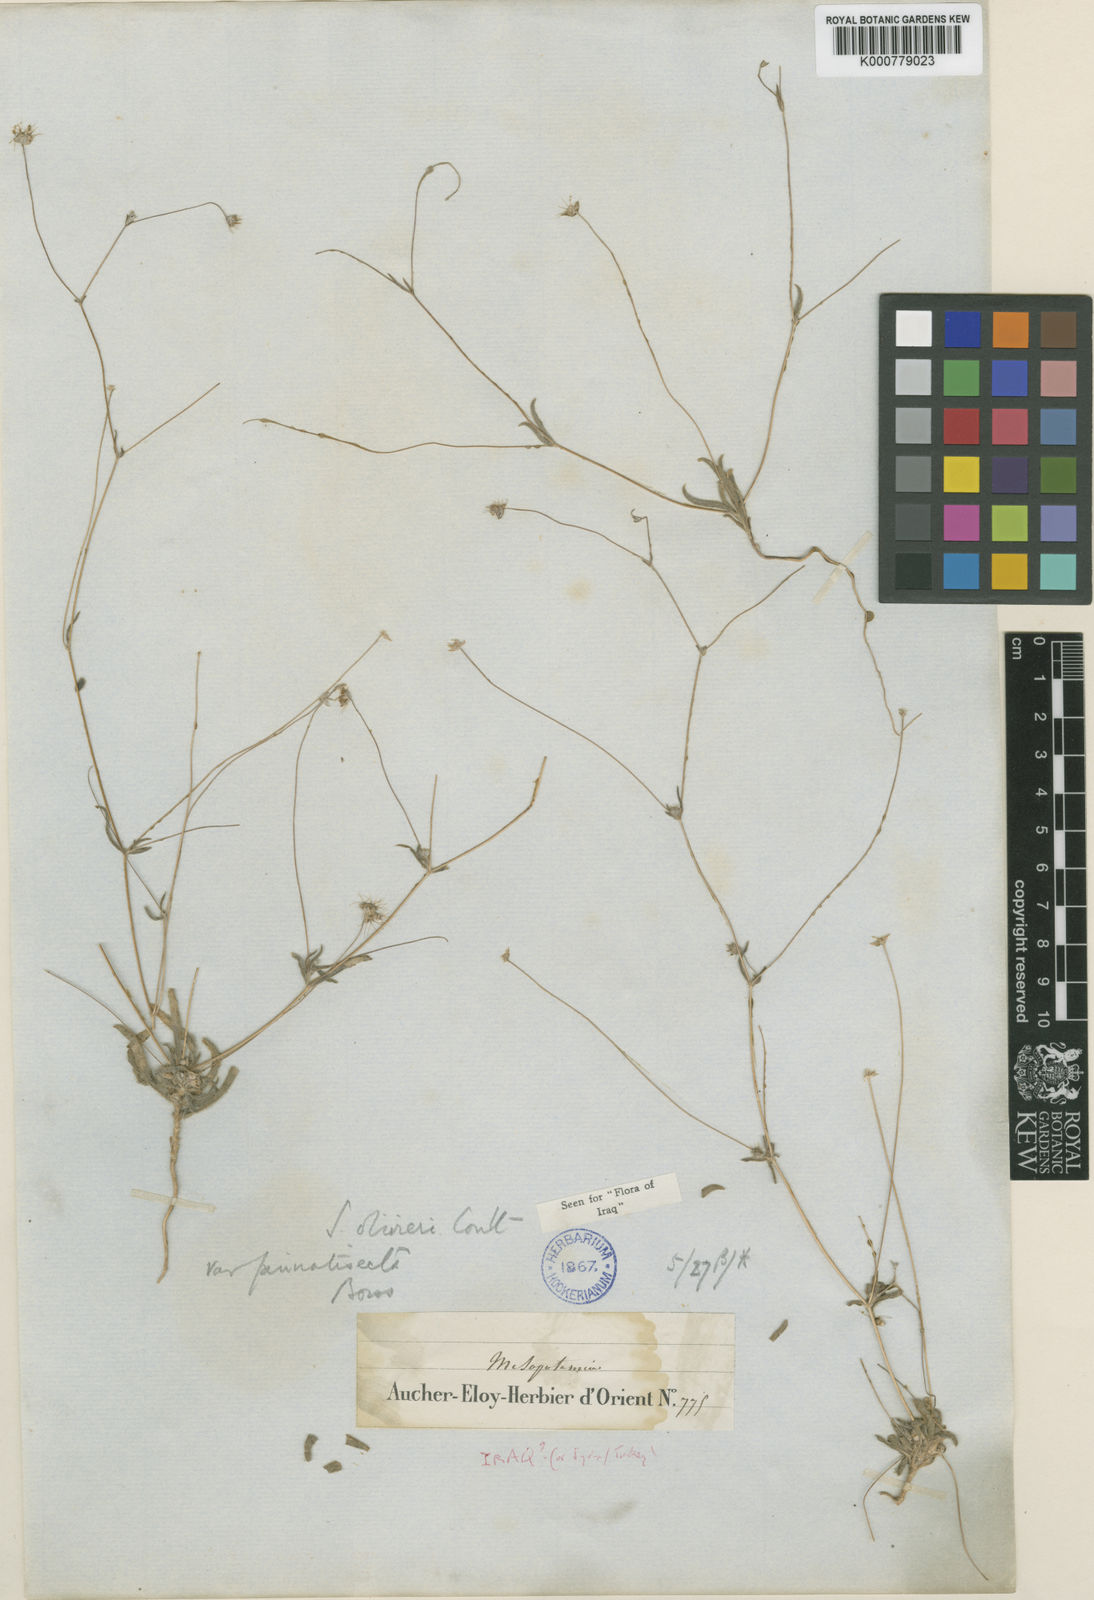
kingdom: Plantae
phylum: Tracheophyta
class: Magnoliopsida
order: Dipsacales
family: Caprifoliaceae
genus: Lomelosia
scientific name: Lomelosia olivieri
